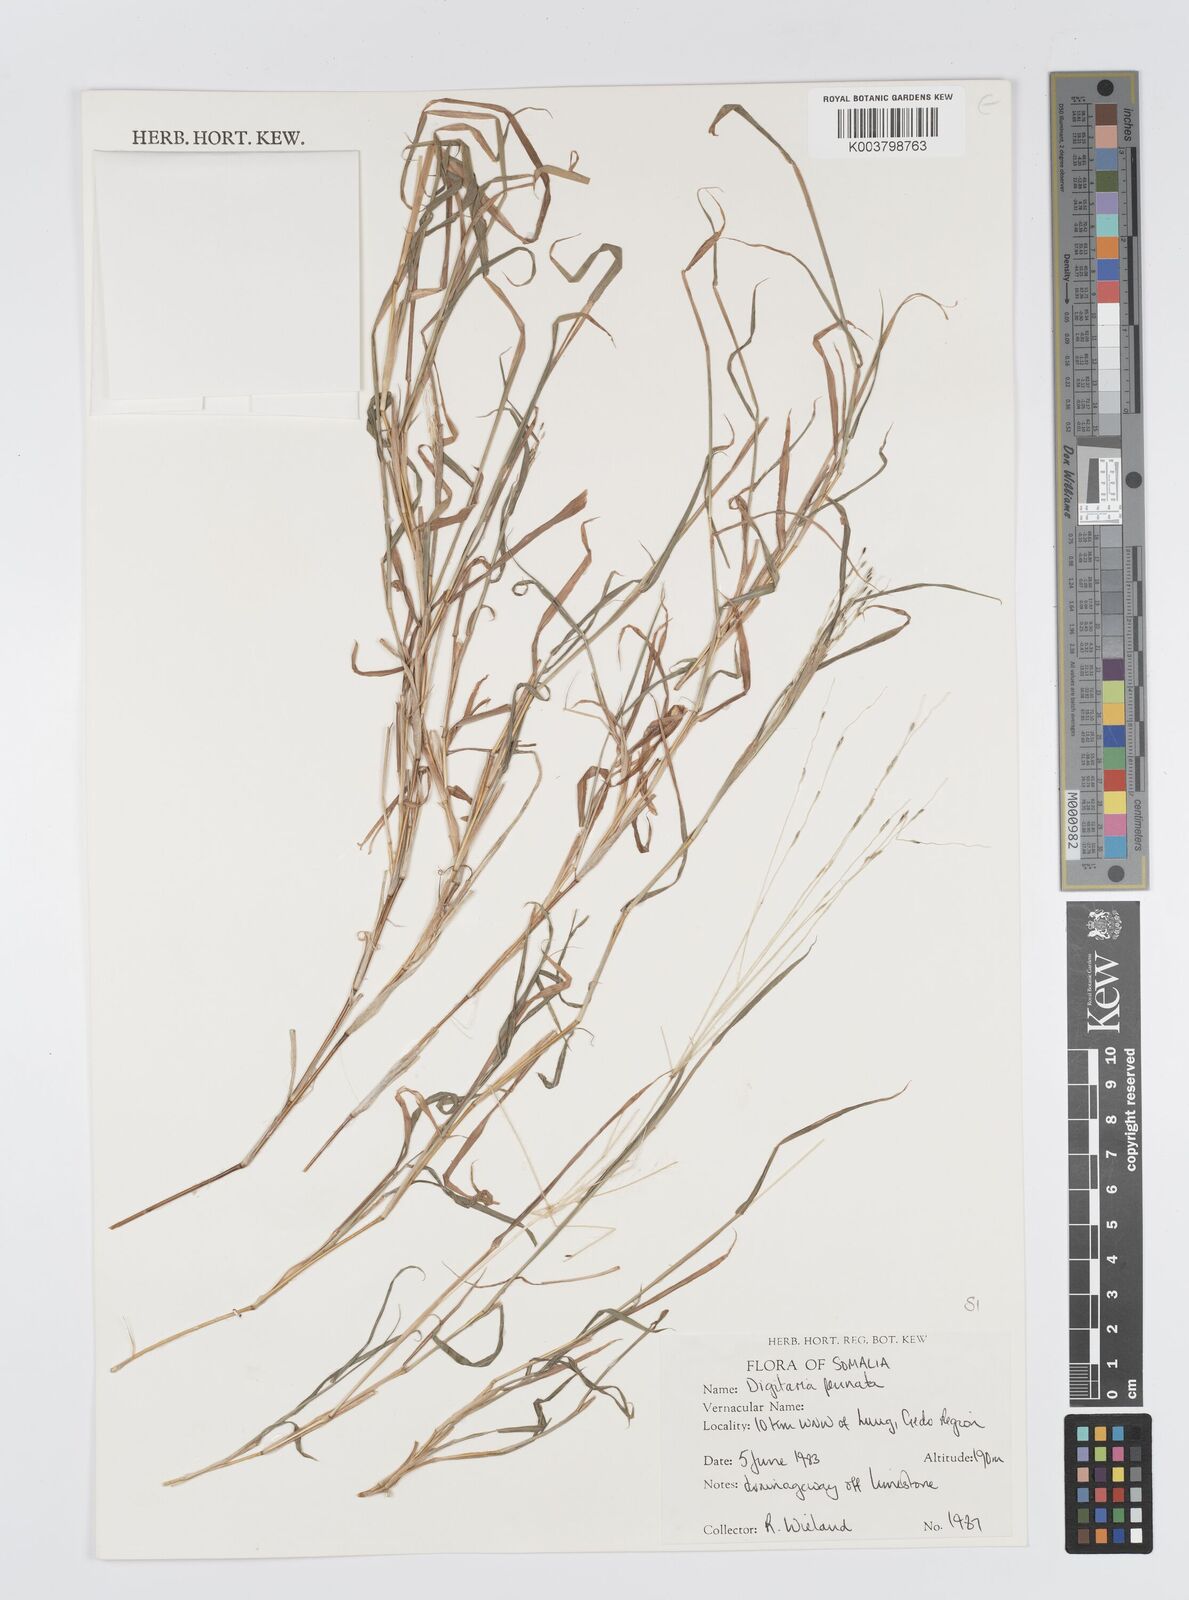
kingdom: Plantae
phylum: Tracheophyta
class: Liliopsida
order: Poales
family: Poaceae
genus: Digitaria
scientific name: Digitaria pennata
